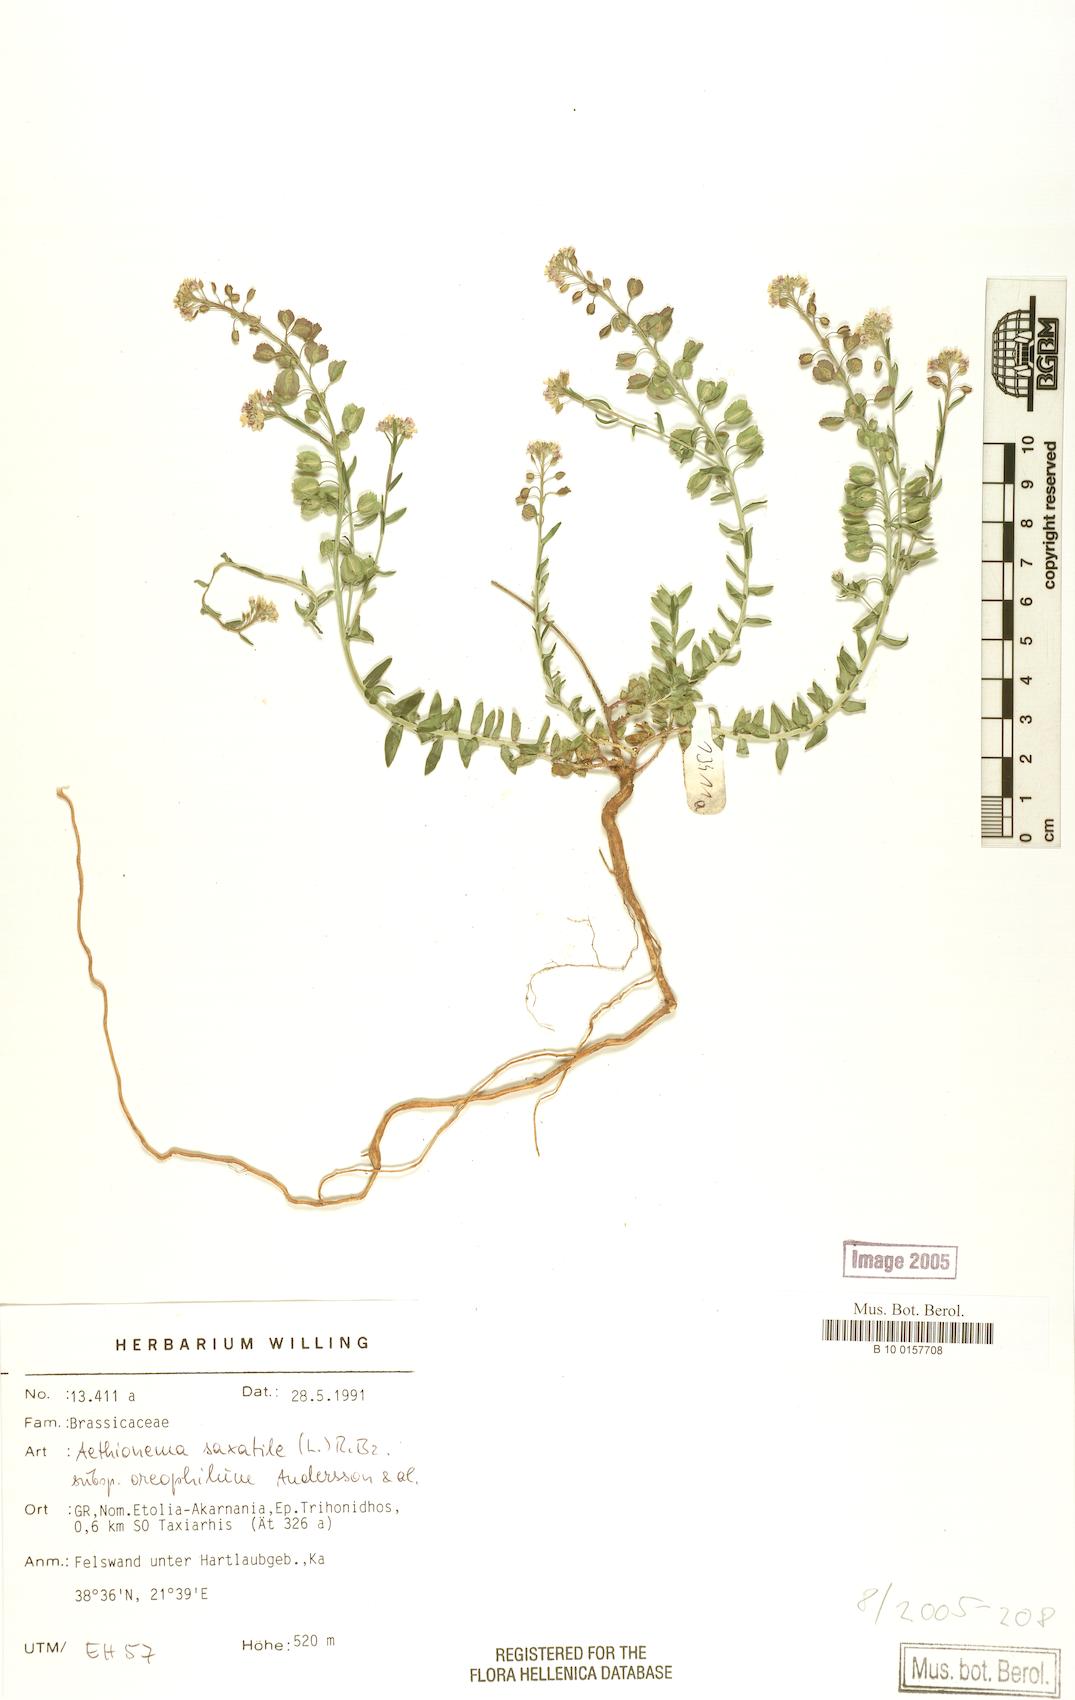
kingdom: Plantae
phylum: Tracheophyta
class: Magnoliopsida
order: Brassicales
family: Brassicaceae
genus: Aethionema
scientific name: Aethionema saxatile
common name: Burnt candytuft
